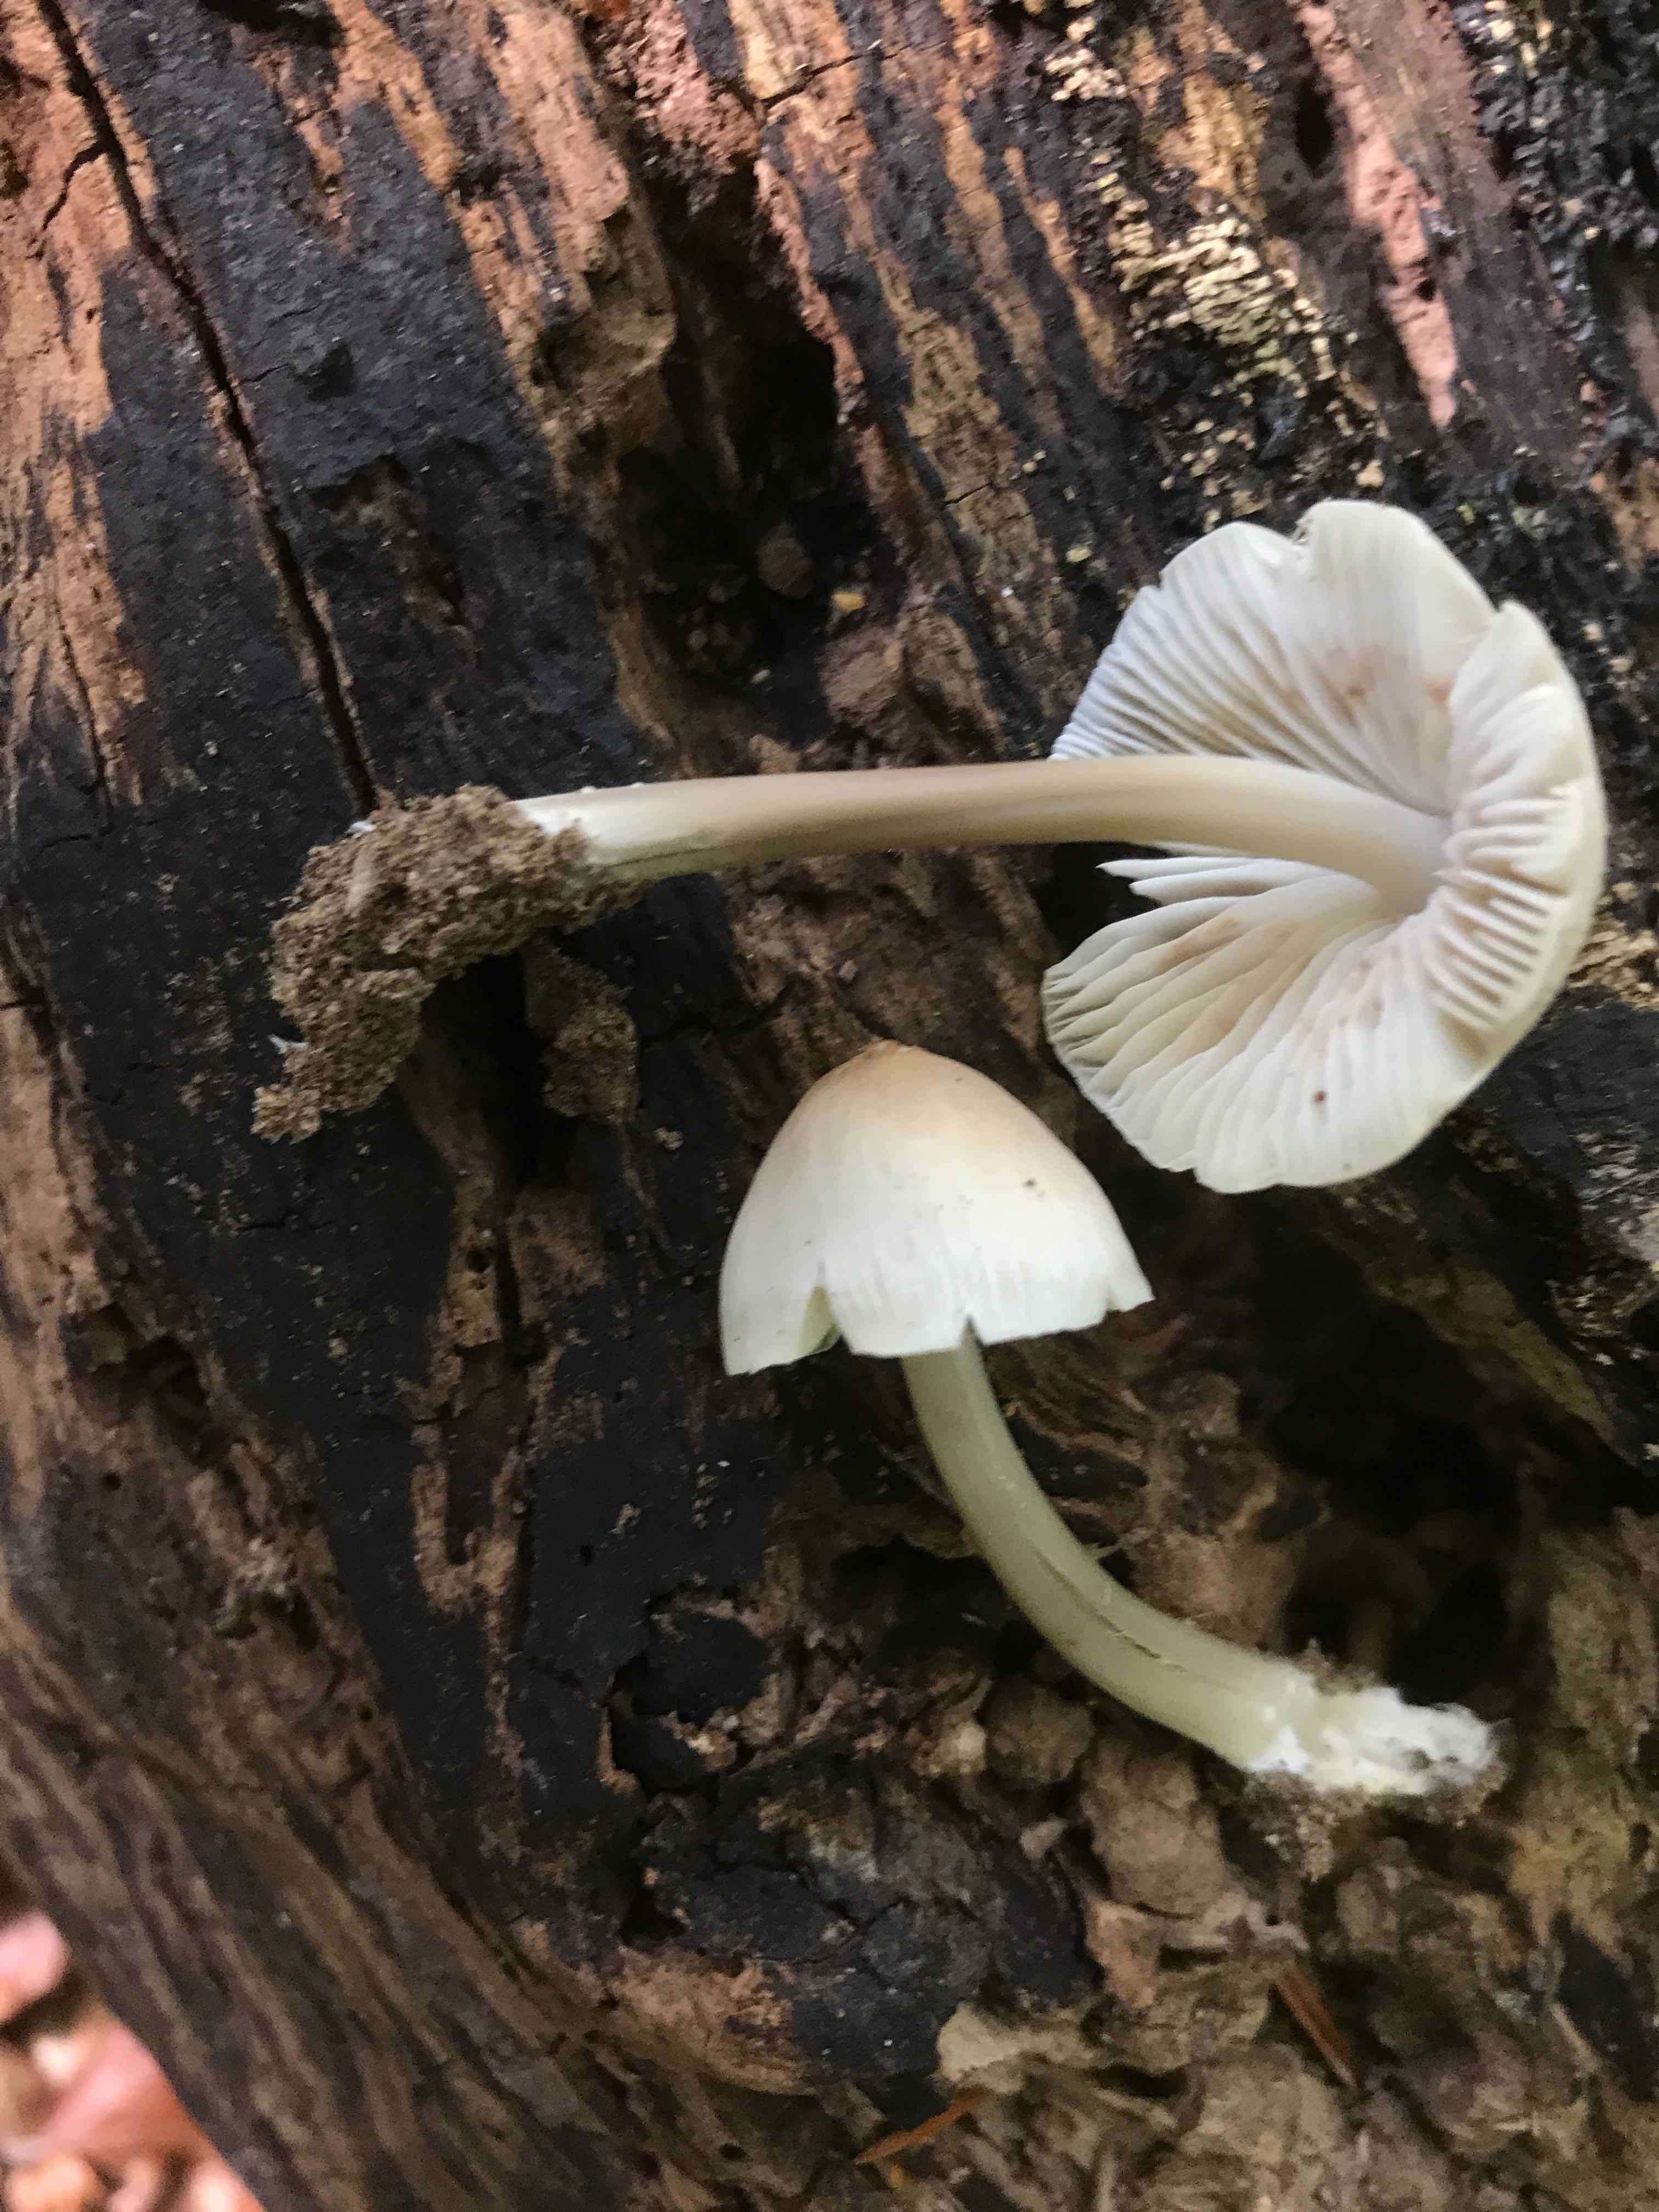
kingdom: Fungi
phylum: Basidiomycota
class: Agaricomycetes
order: Agaricales
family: Mycenaceae
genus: Mycena
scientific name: Mycena galericulata
